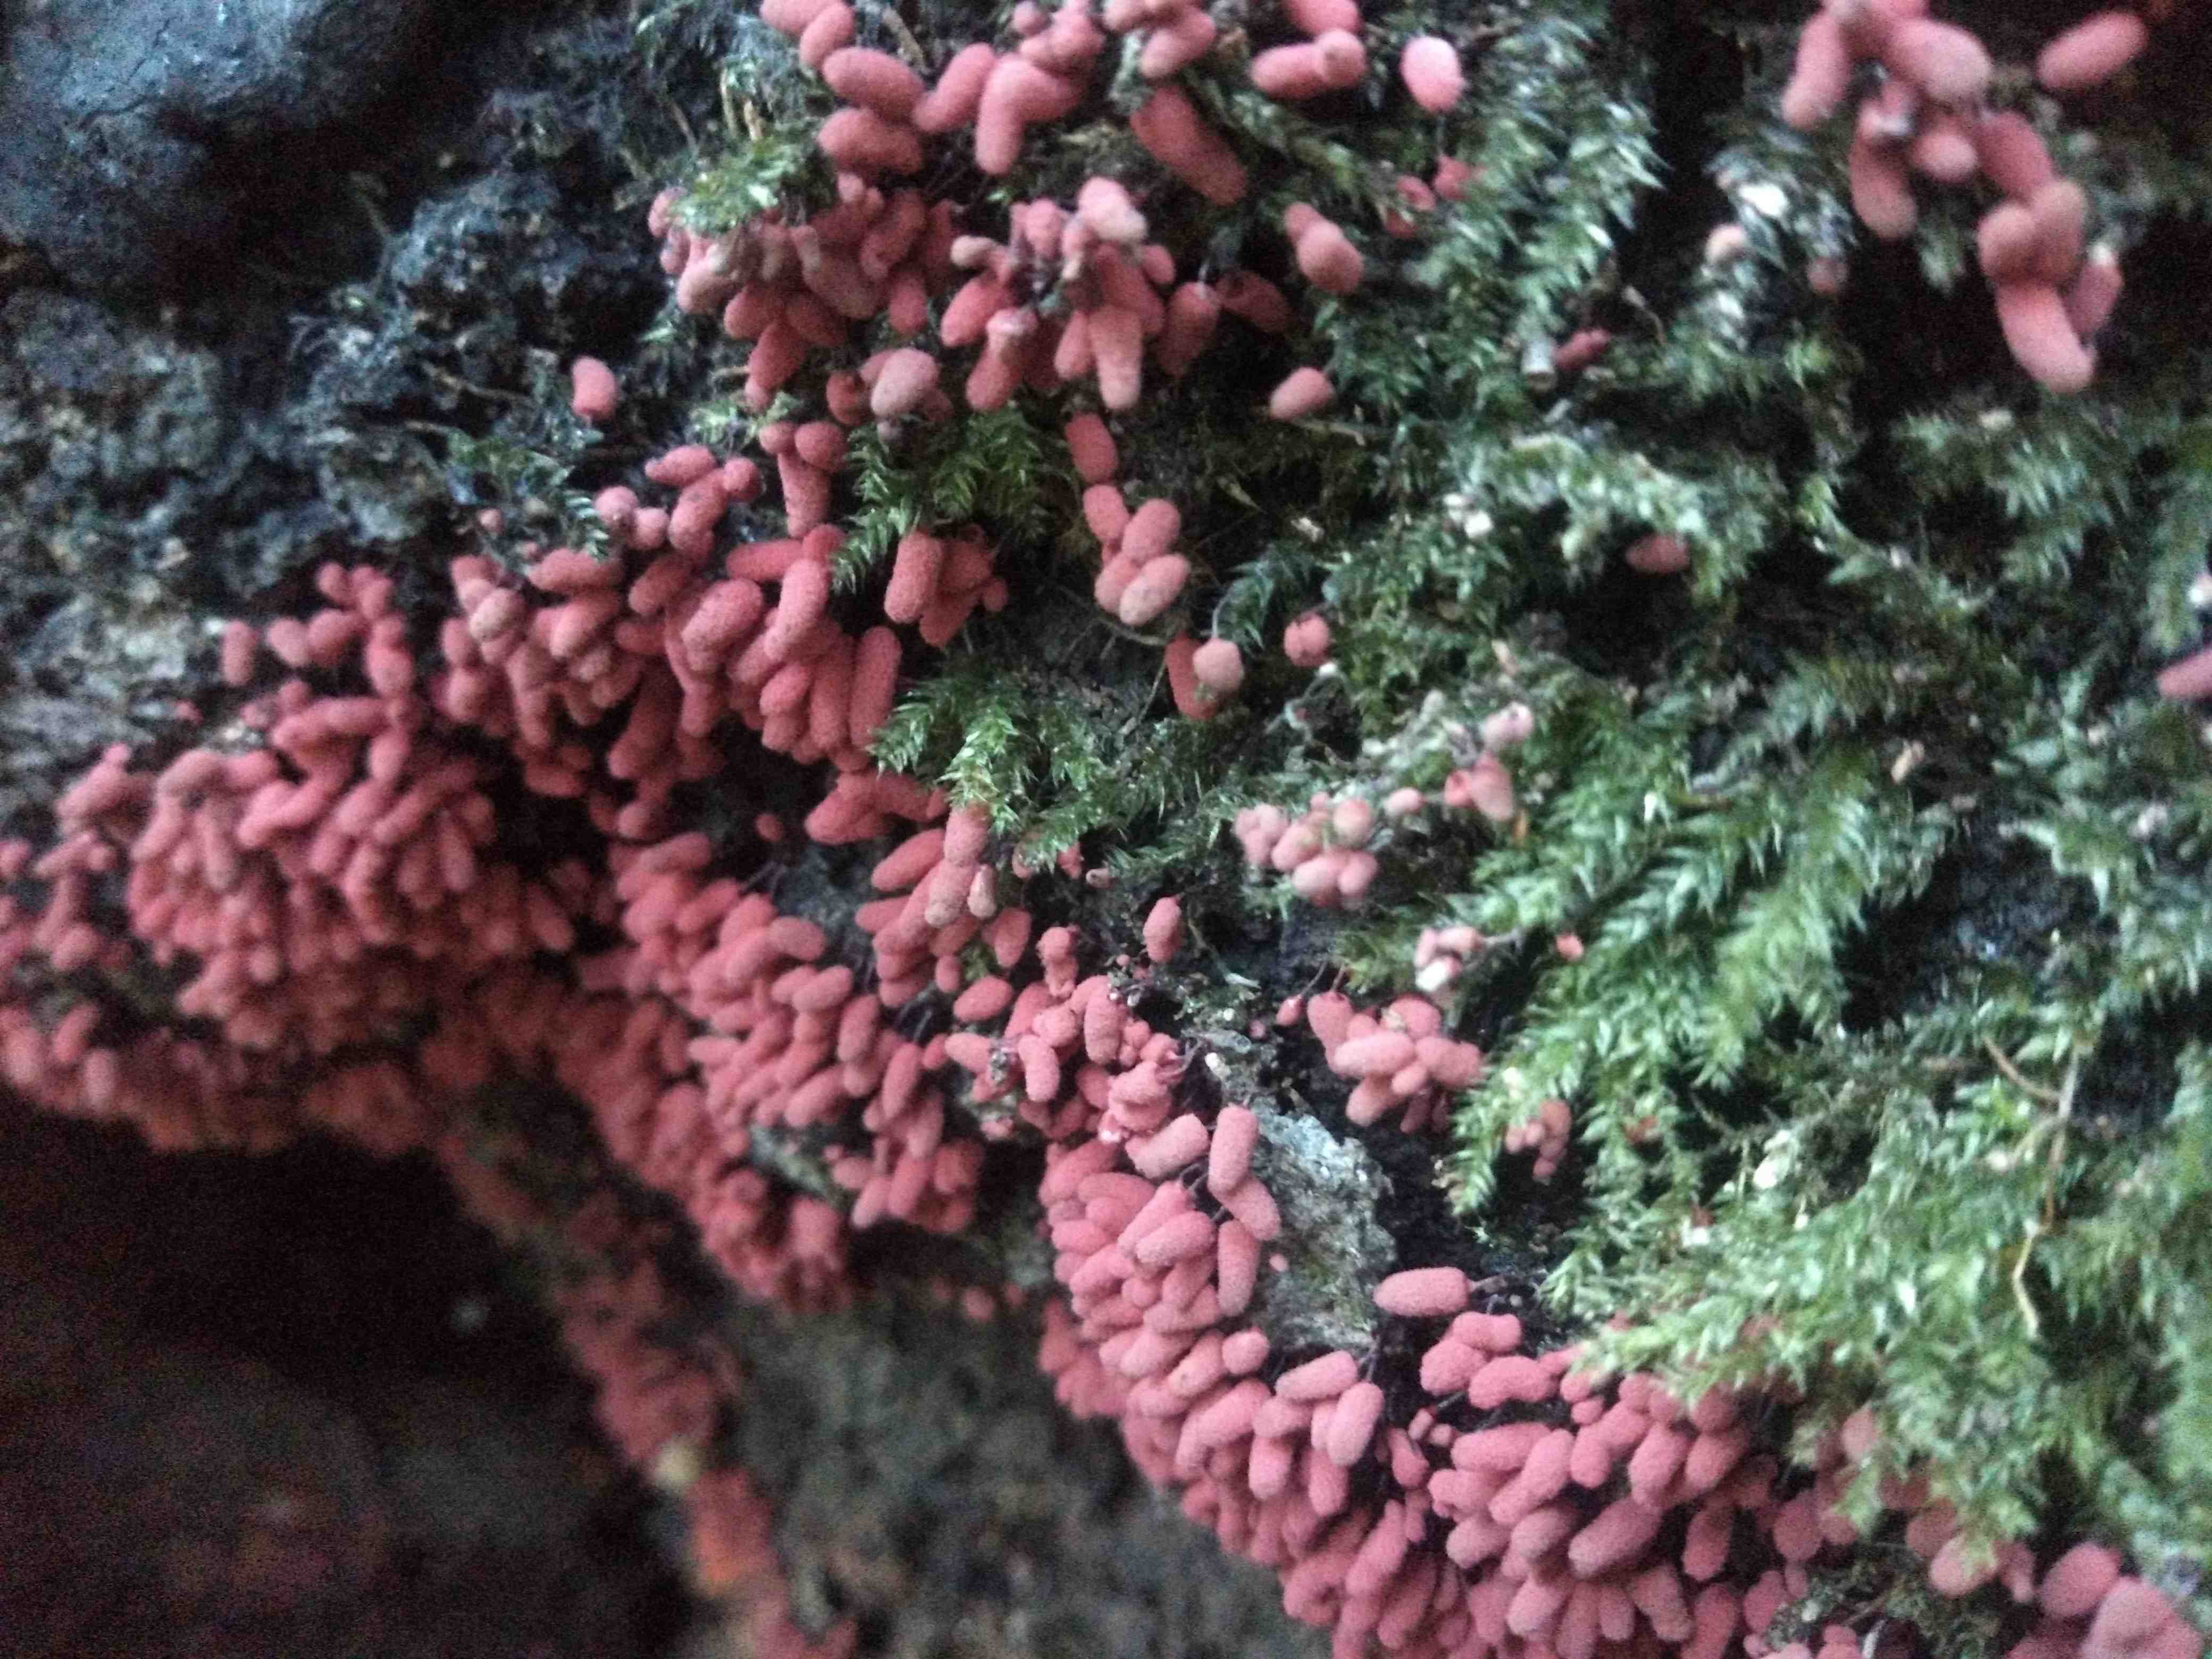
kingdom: Protozoa
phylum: Mycetozoa
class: Myxomycetes
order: Trichiales
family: Arcyriaceae
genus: Arcyria
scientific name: Arcyria denudata
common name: karminrød skålsvøb
